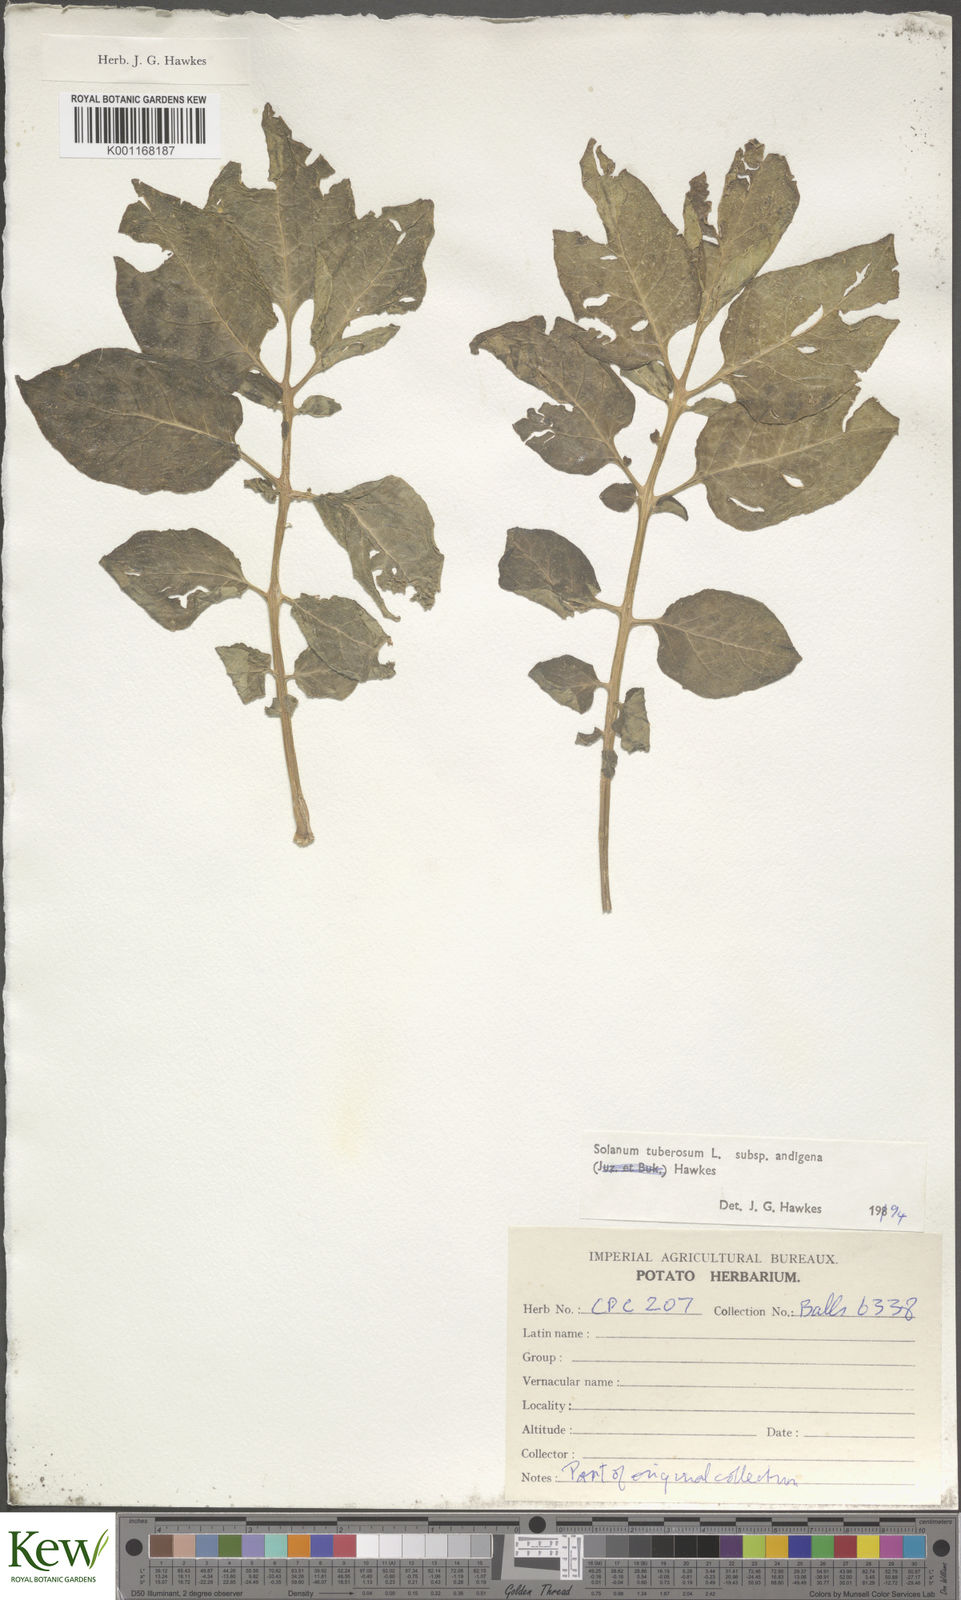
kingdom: Plantae
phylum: Tracheophyta
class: Magnoliopsida
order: Solanales
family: Solanaceae
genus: Solanum
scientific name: Solanum tuberosum
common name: Potato
